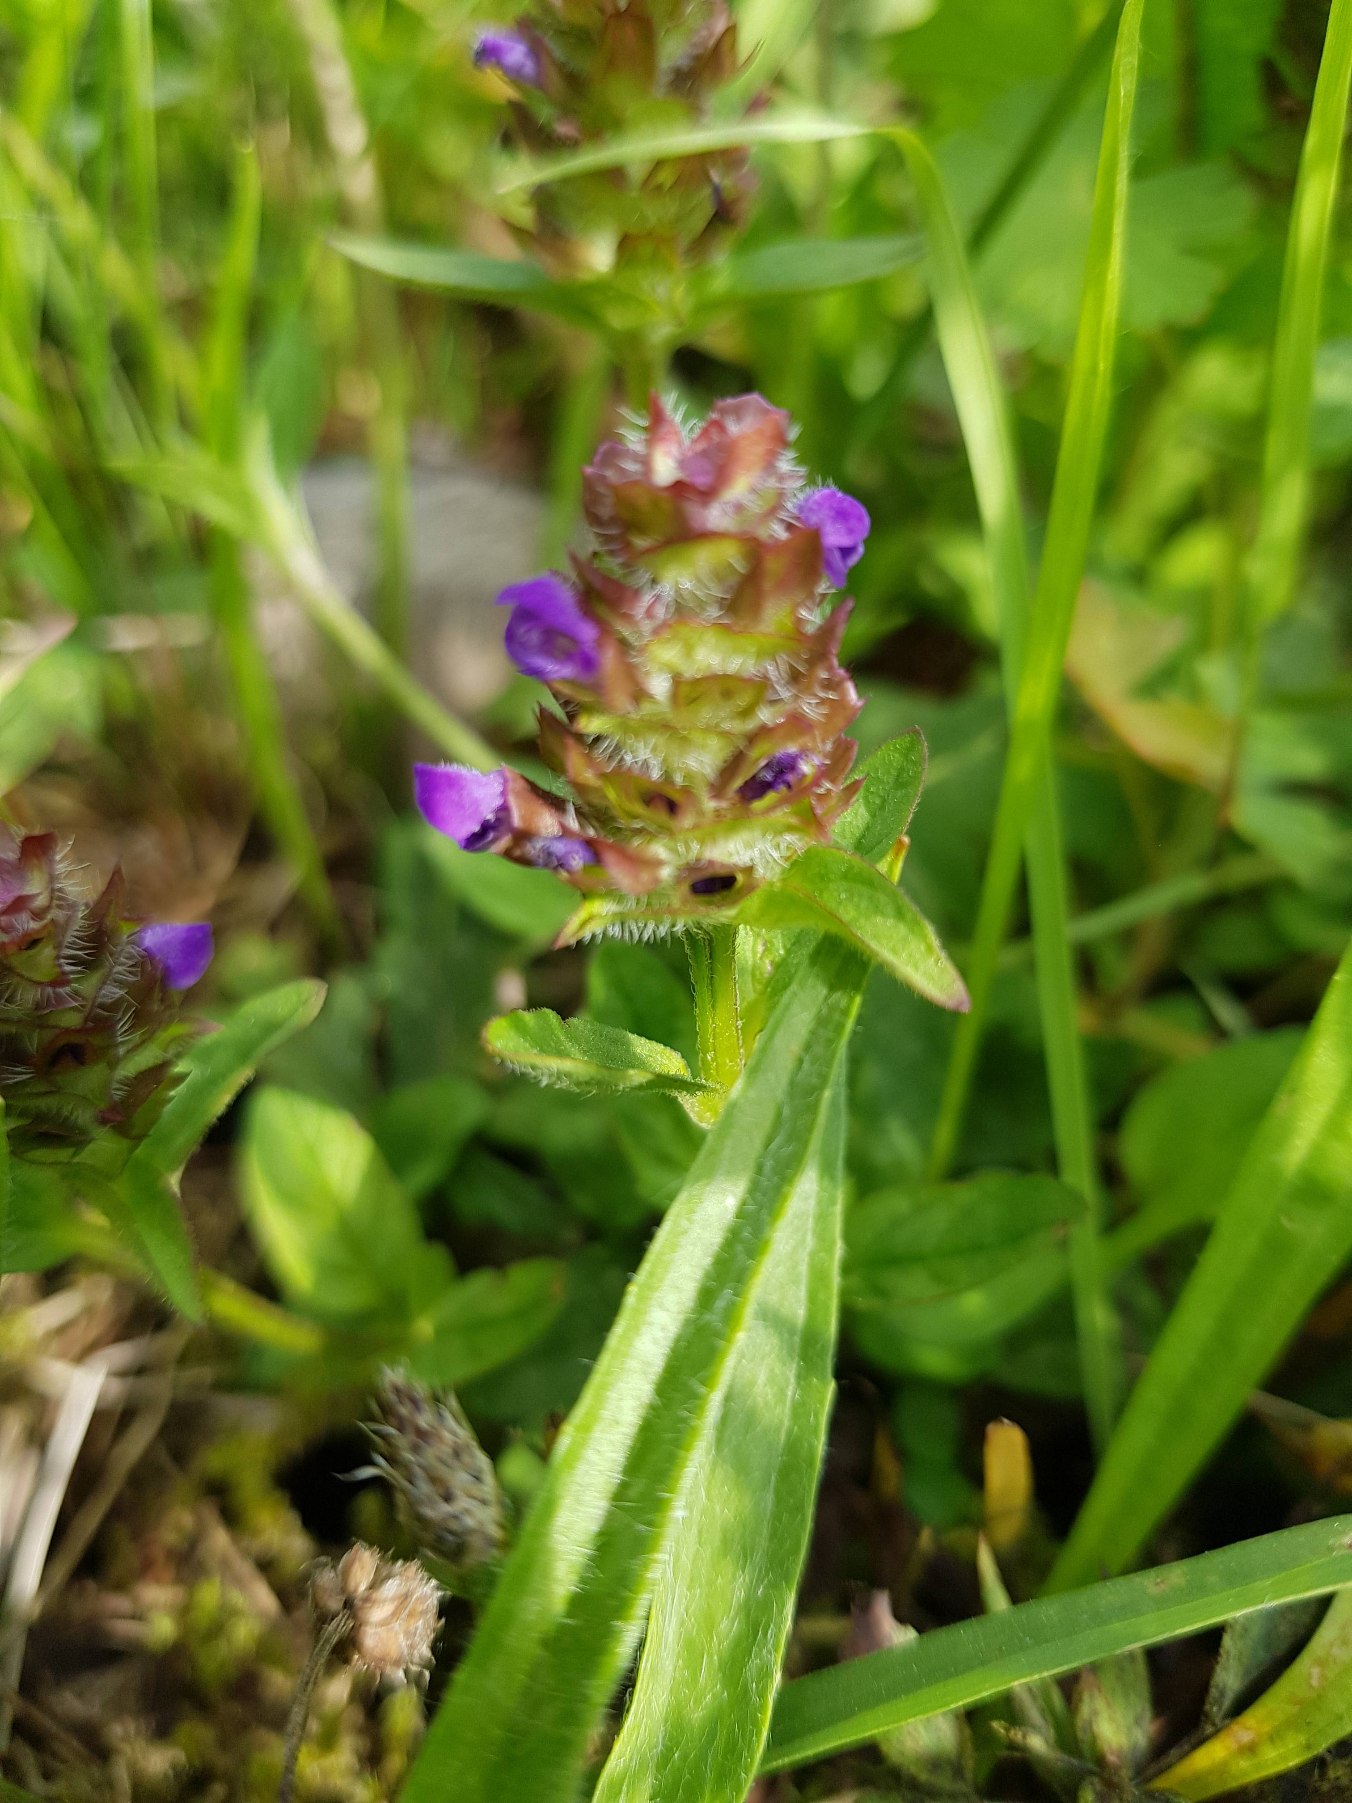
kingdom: Plantae
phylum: Tracheophyta
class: Magnoliopsida
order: Lamiales
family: Lamiaceae
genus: Prunella
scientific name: Prunella vulgaris
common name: Almindelig brunelle
